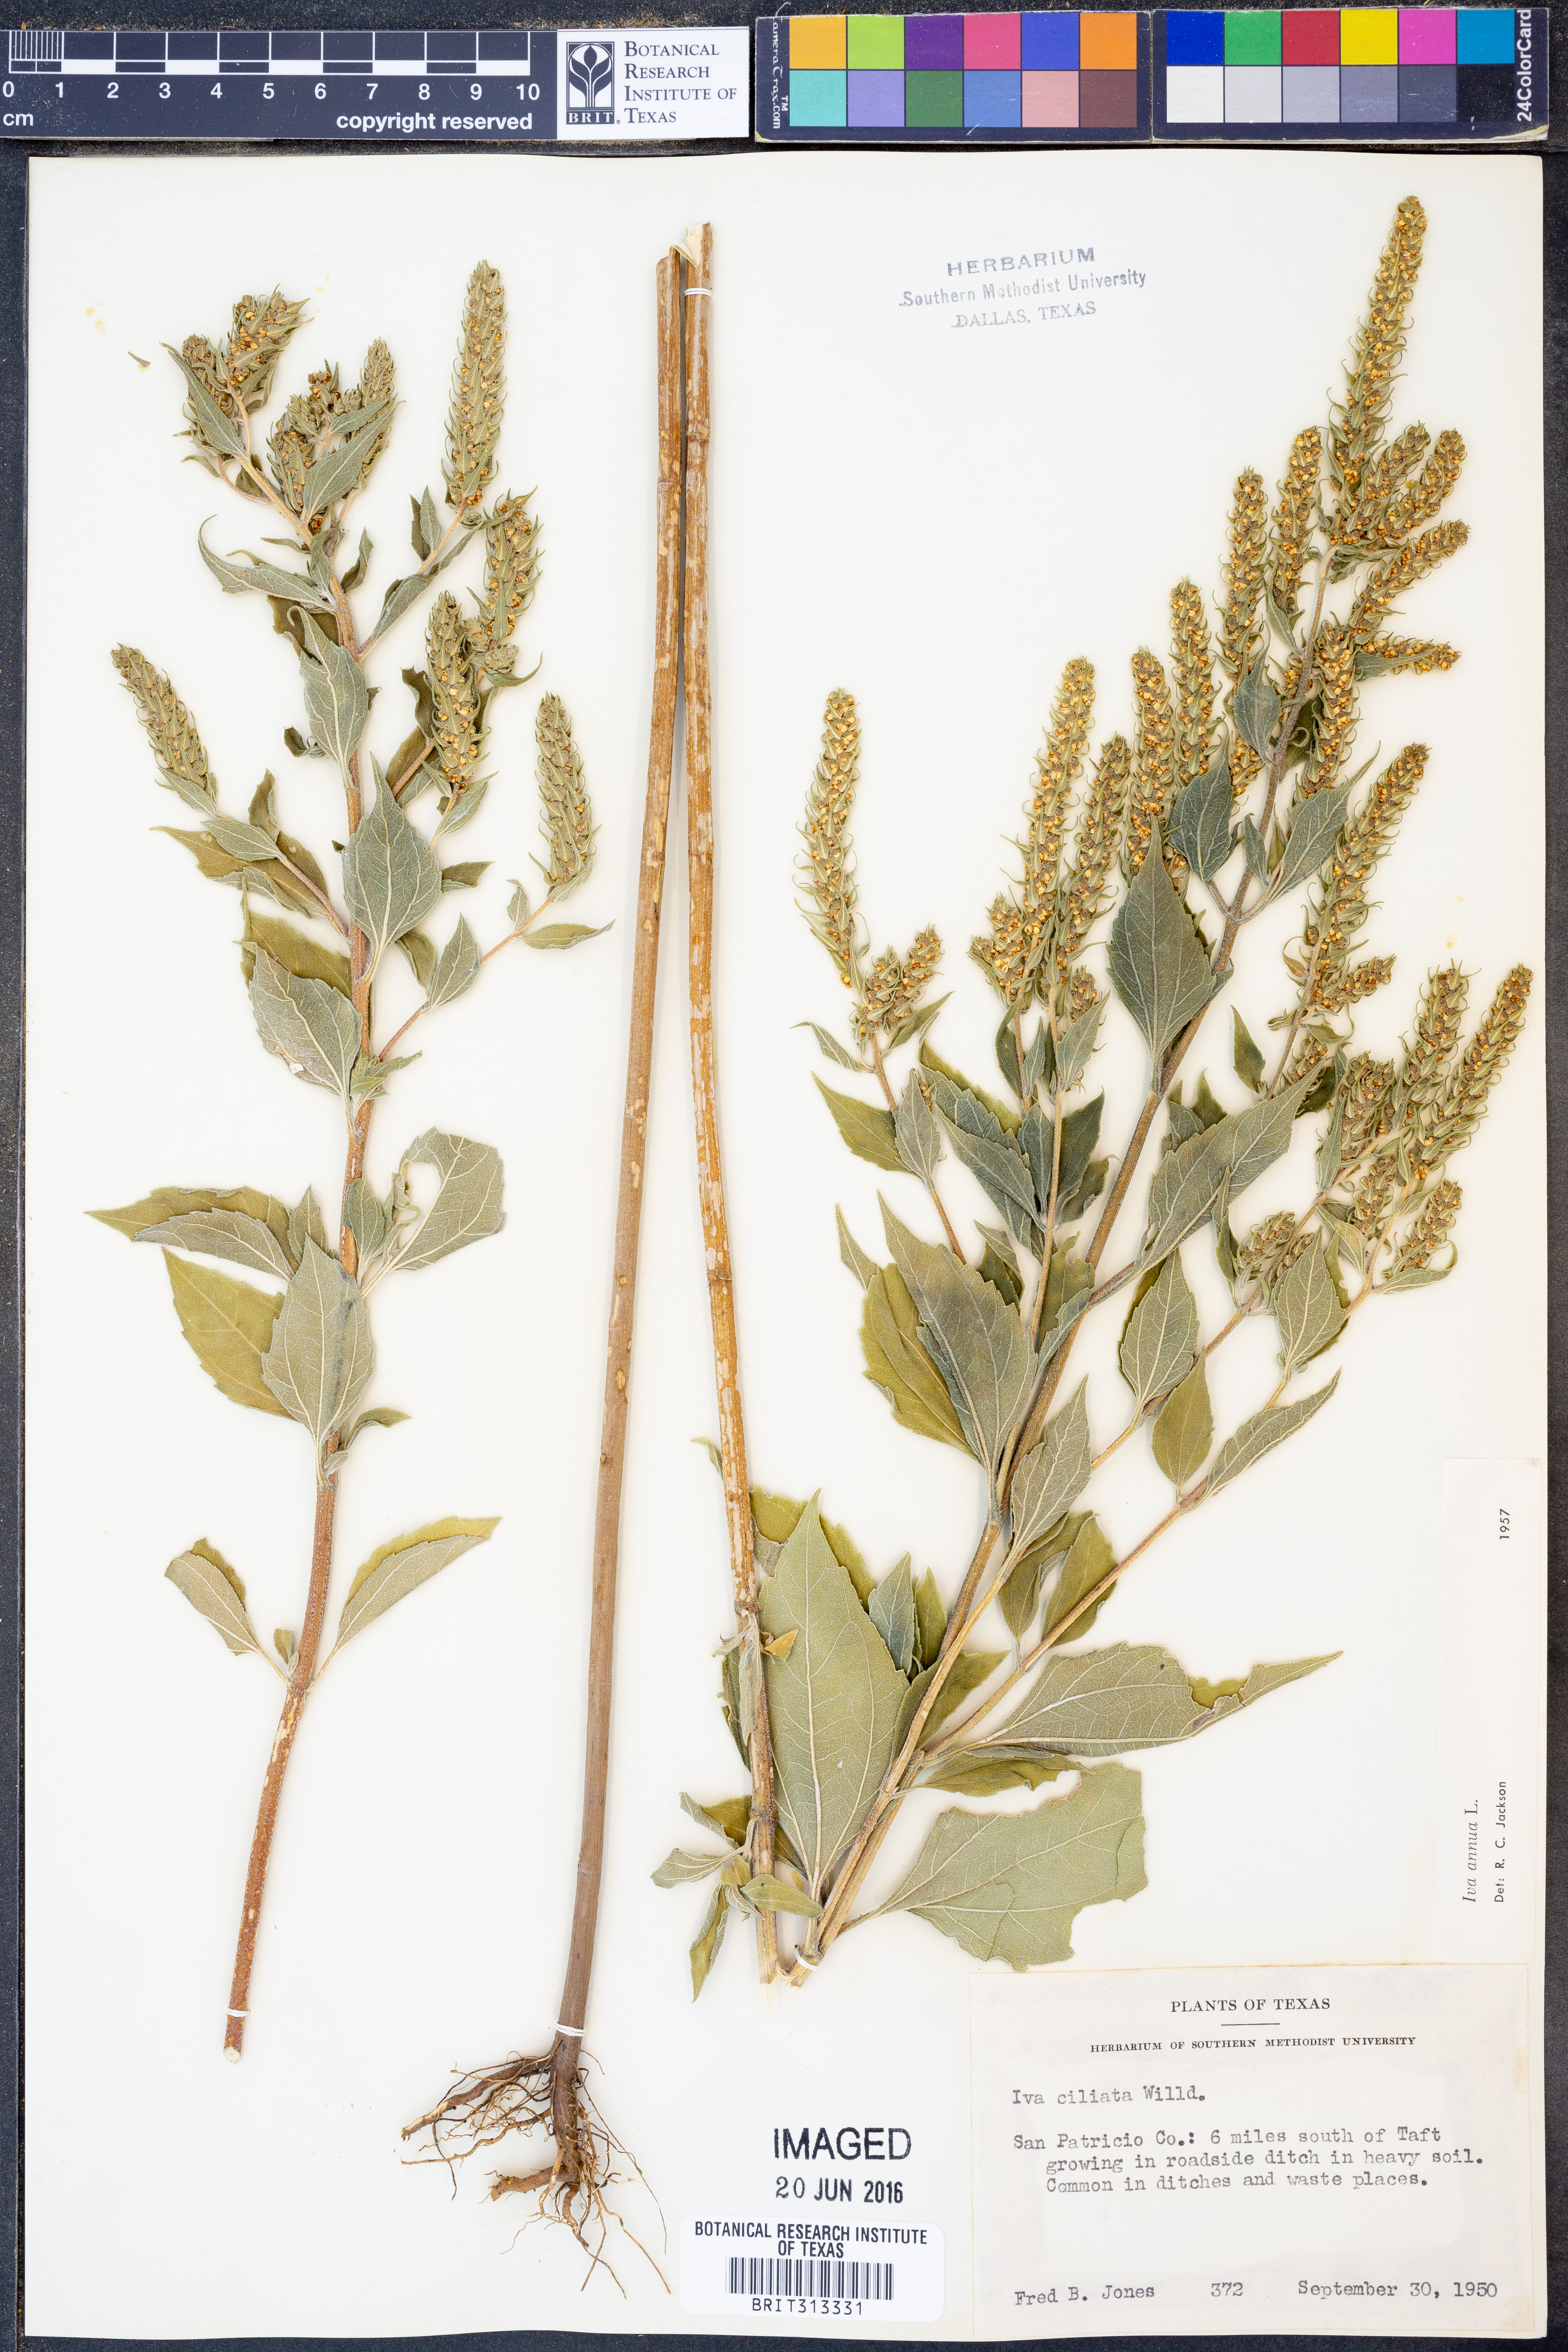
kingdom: Plantae
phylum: Tracheophyta
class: Magnoliopsida
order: Asterales
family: Asteraceae
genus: Iva
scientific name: Iva annua
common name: Marsh-elder
